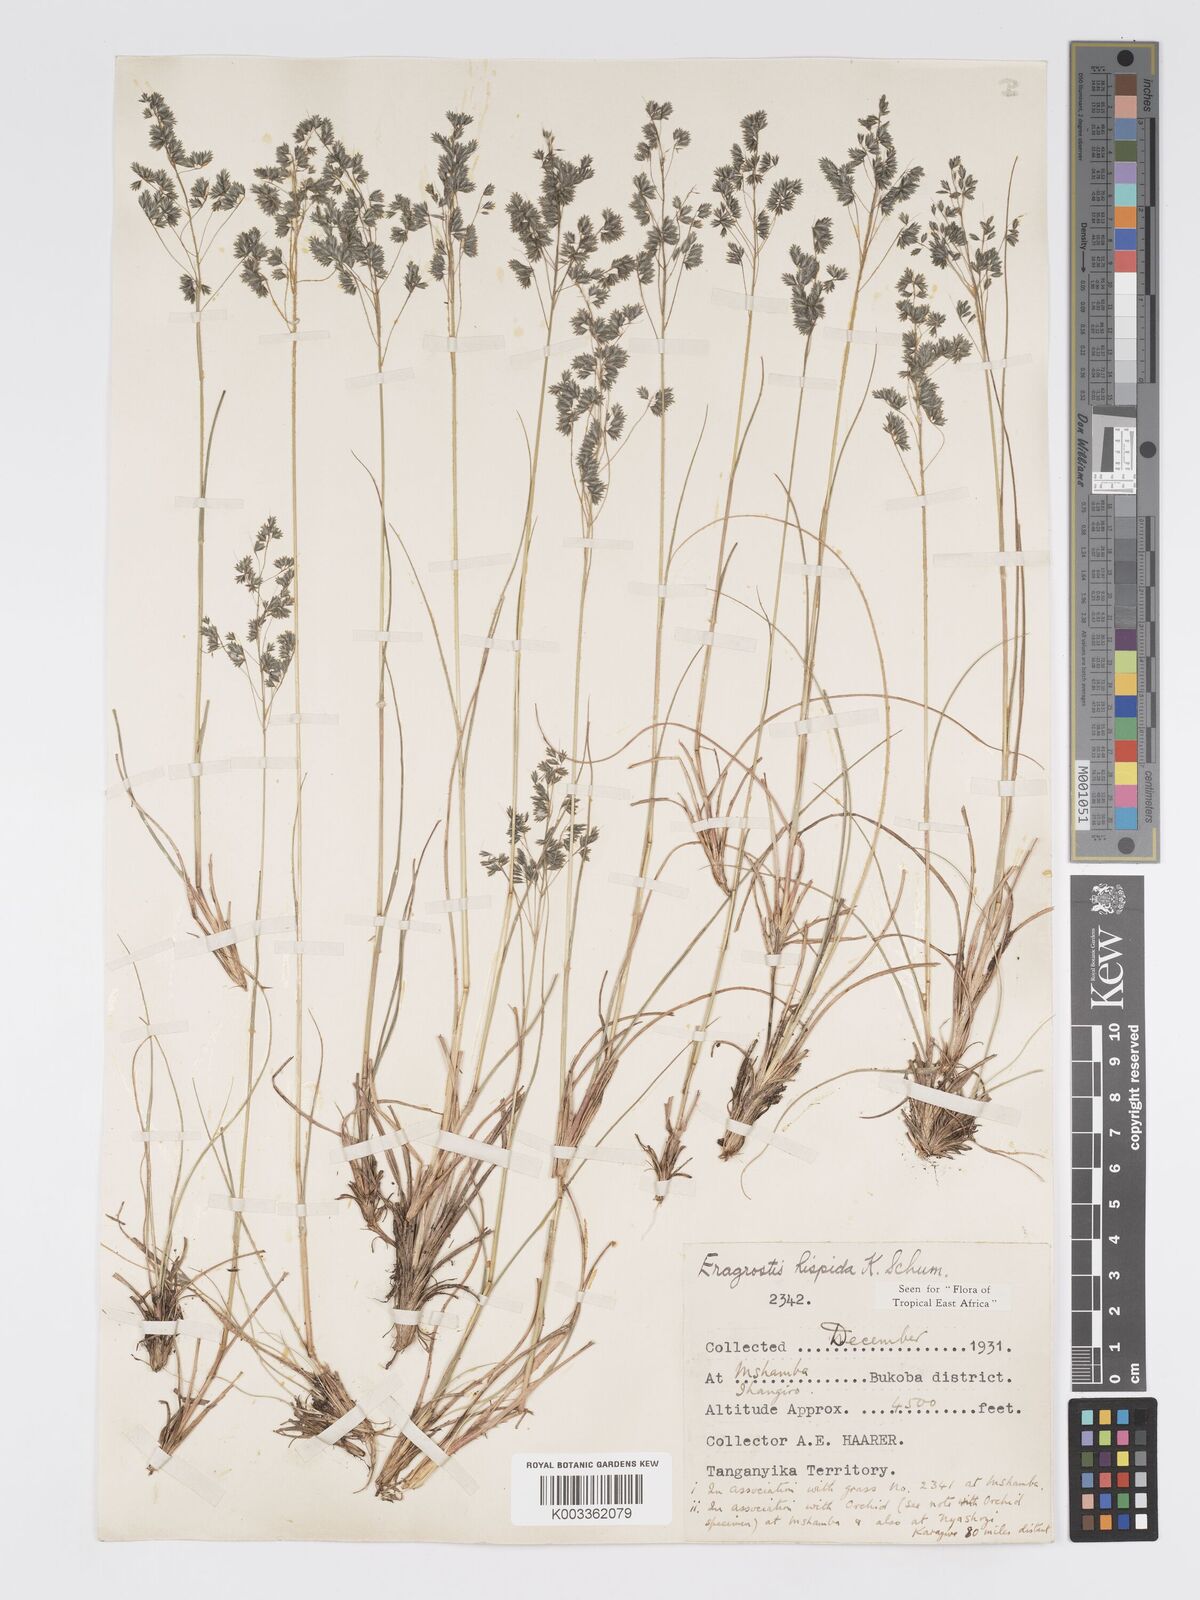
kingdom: Plantae
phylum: Tracheophyta
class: Liliopsida
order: Poales
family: Poaceae
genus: Eragrostis
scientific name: Eragrostis hispida
